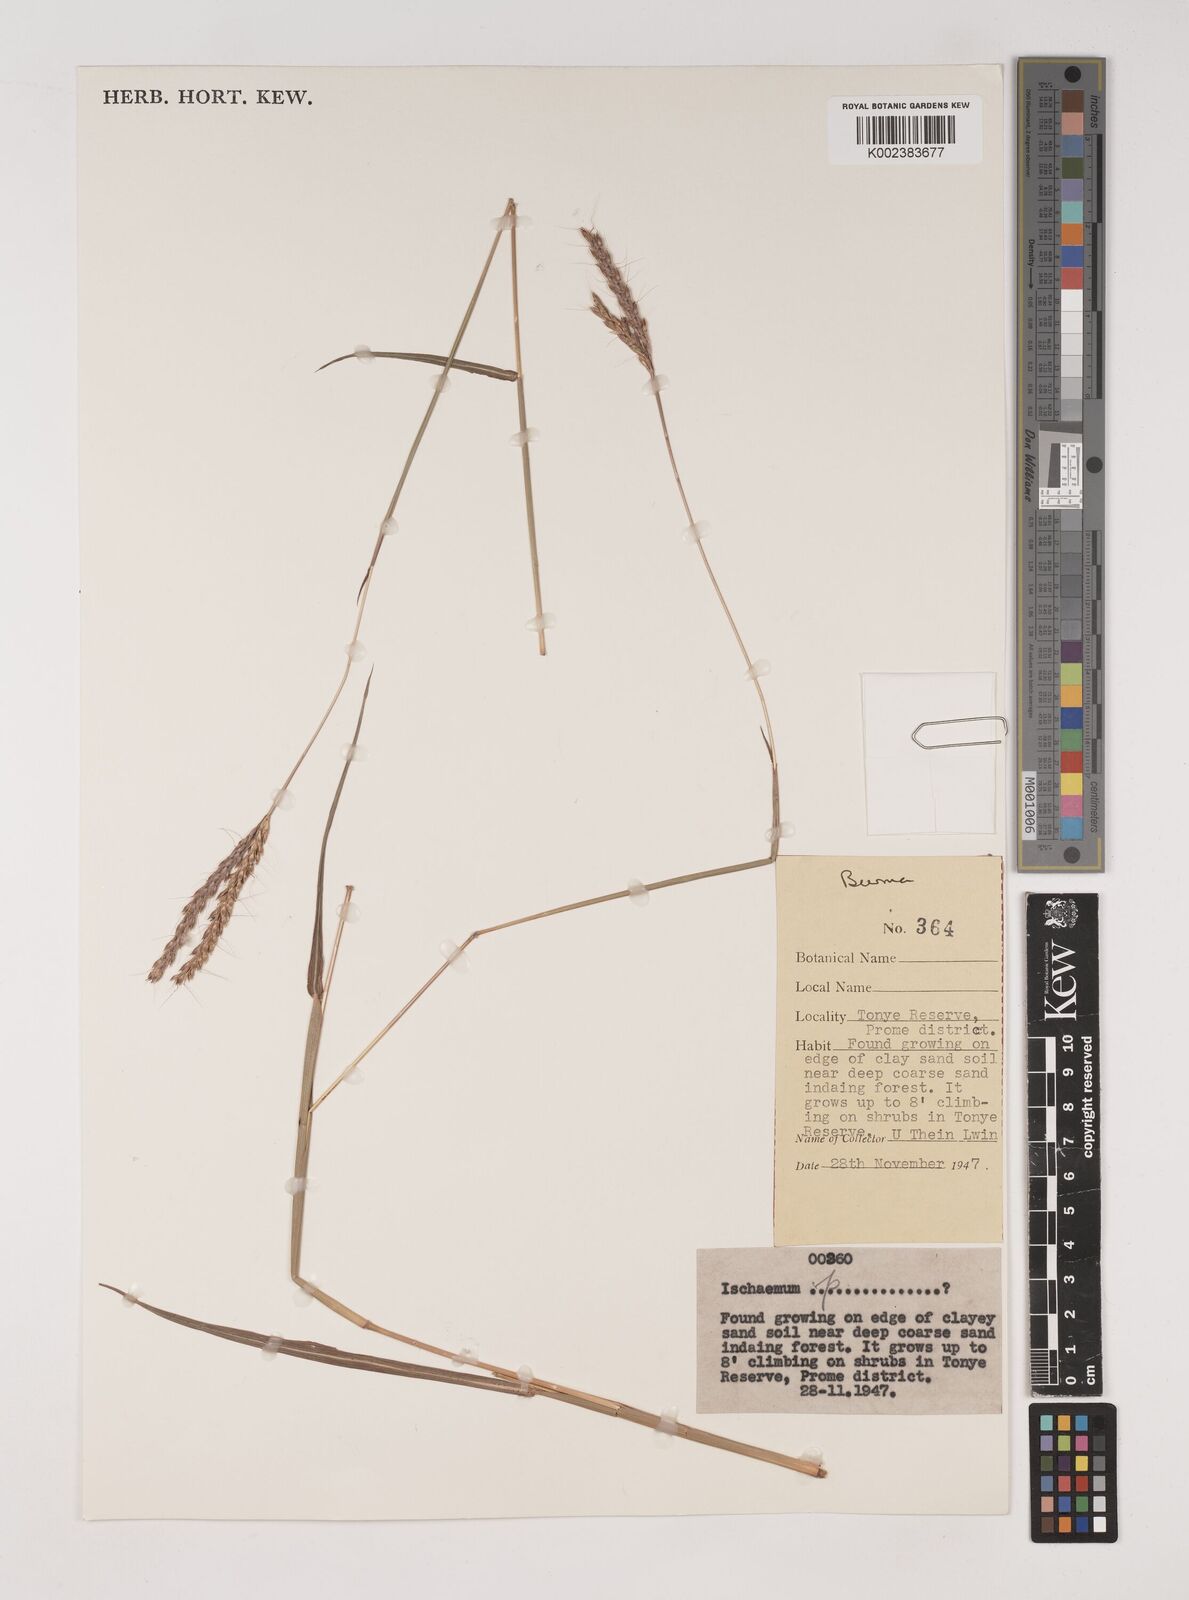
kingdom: Plantae
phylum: Tracheophyta
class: Liliopsida
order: Poales
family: Poaceae
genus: Ischaemum
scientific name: Ischaemum
